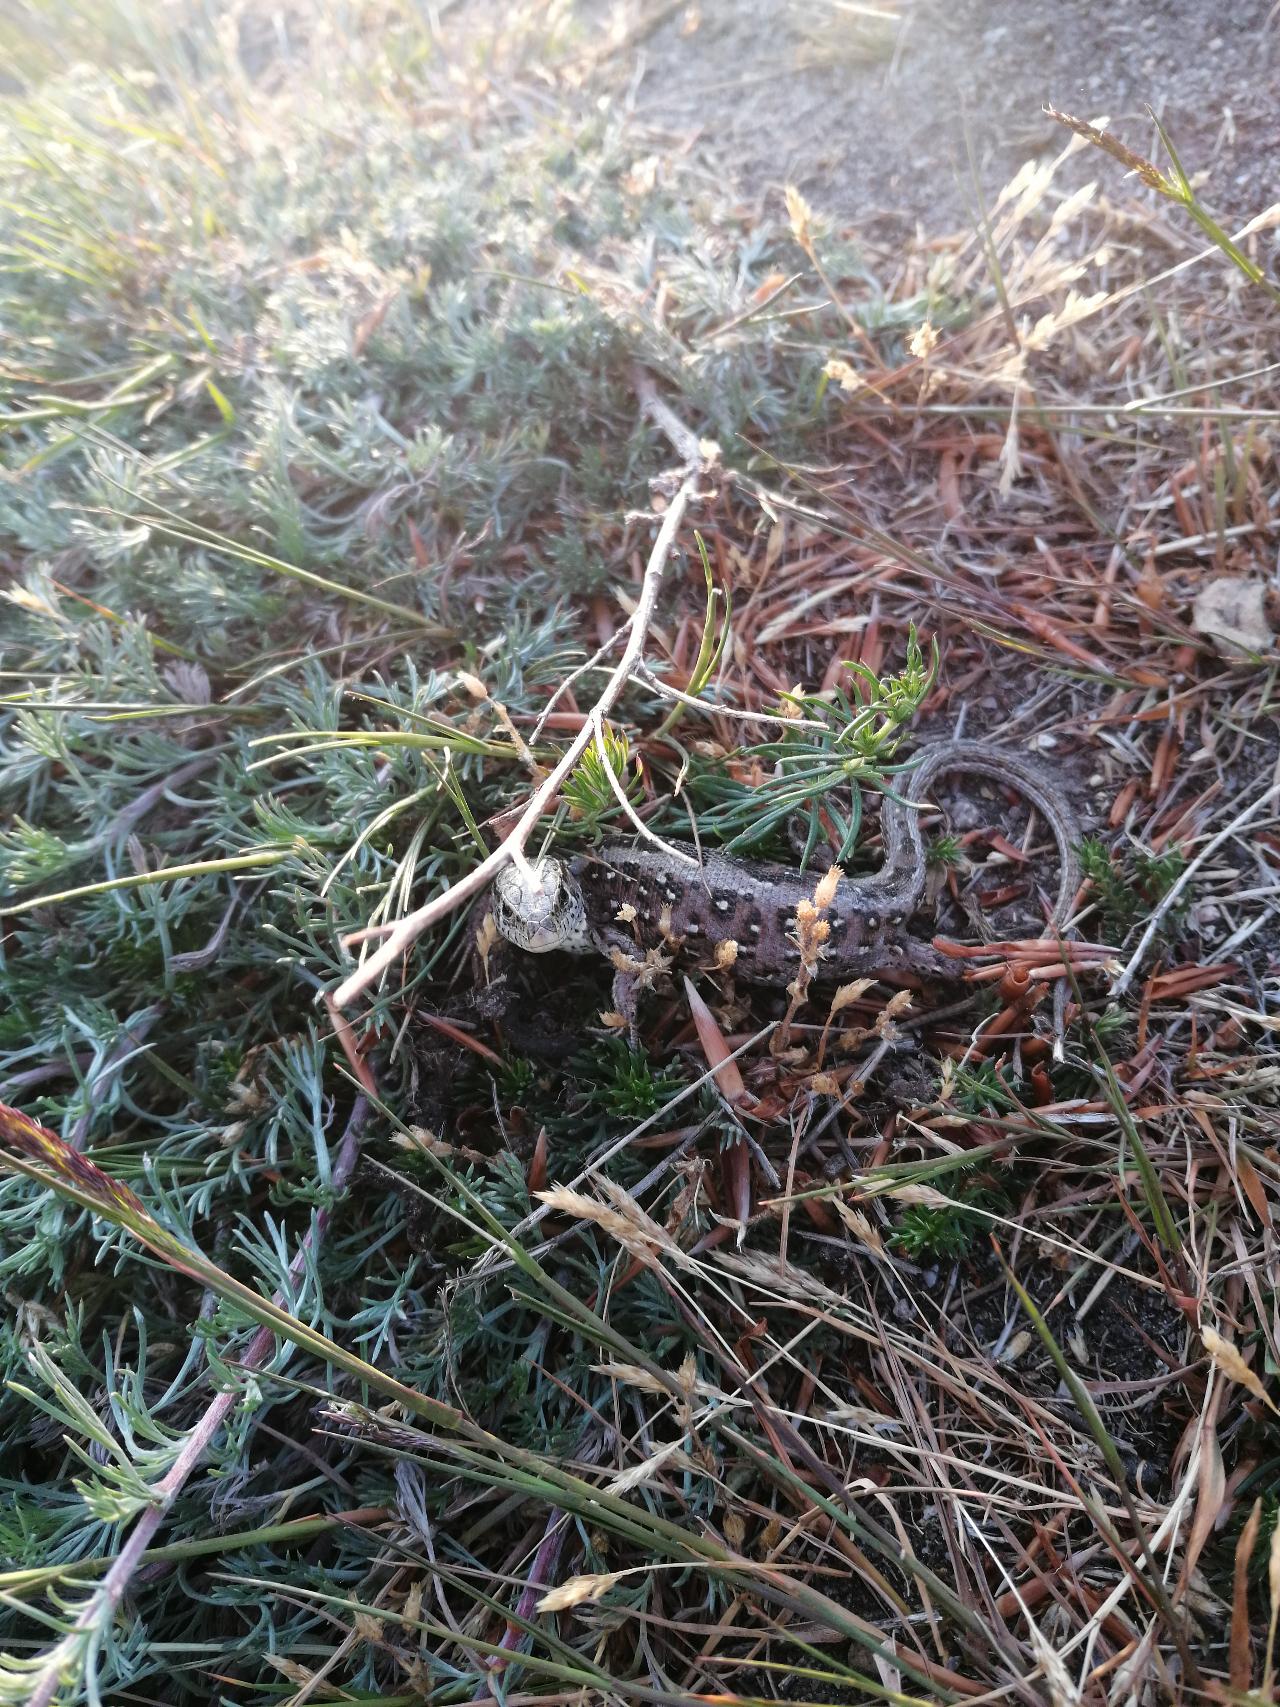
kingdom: Animalia
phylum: Chordata
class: Squamata
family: Lacertidae
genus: Lacerta
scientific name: Lacerta agilis
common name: Markfirben
